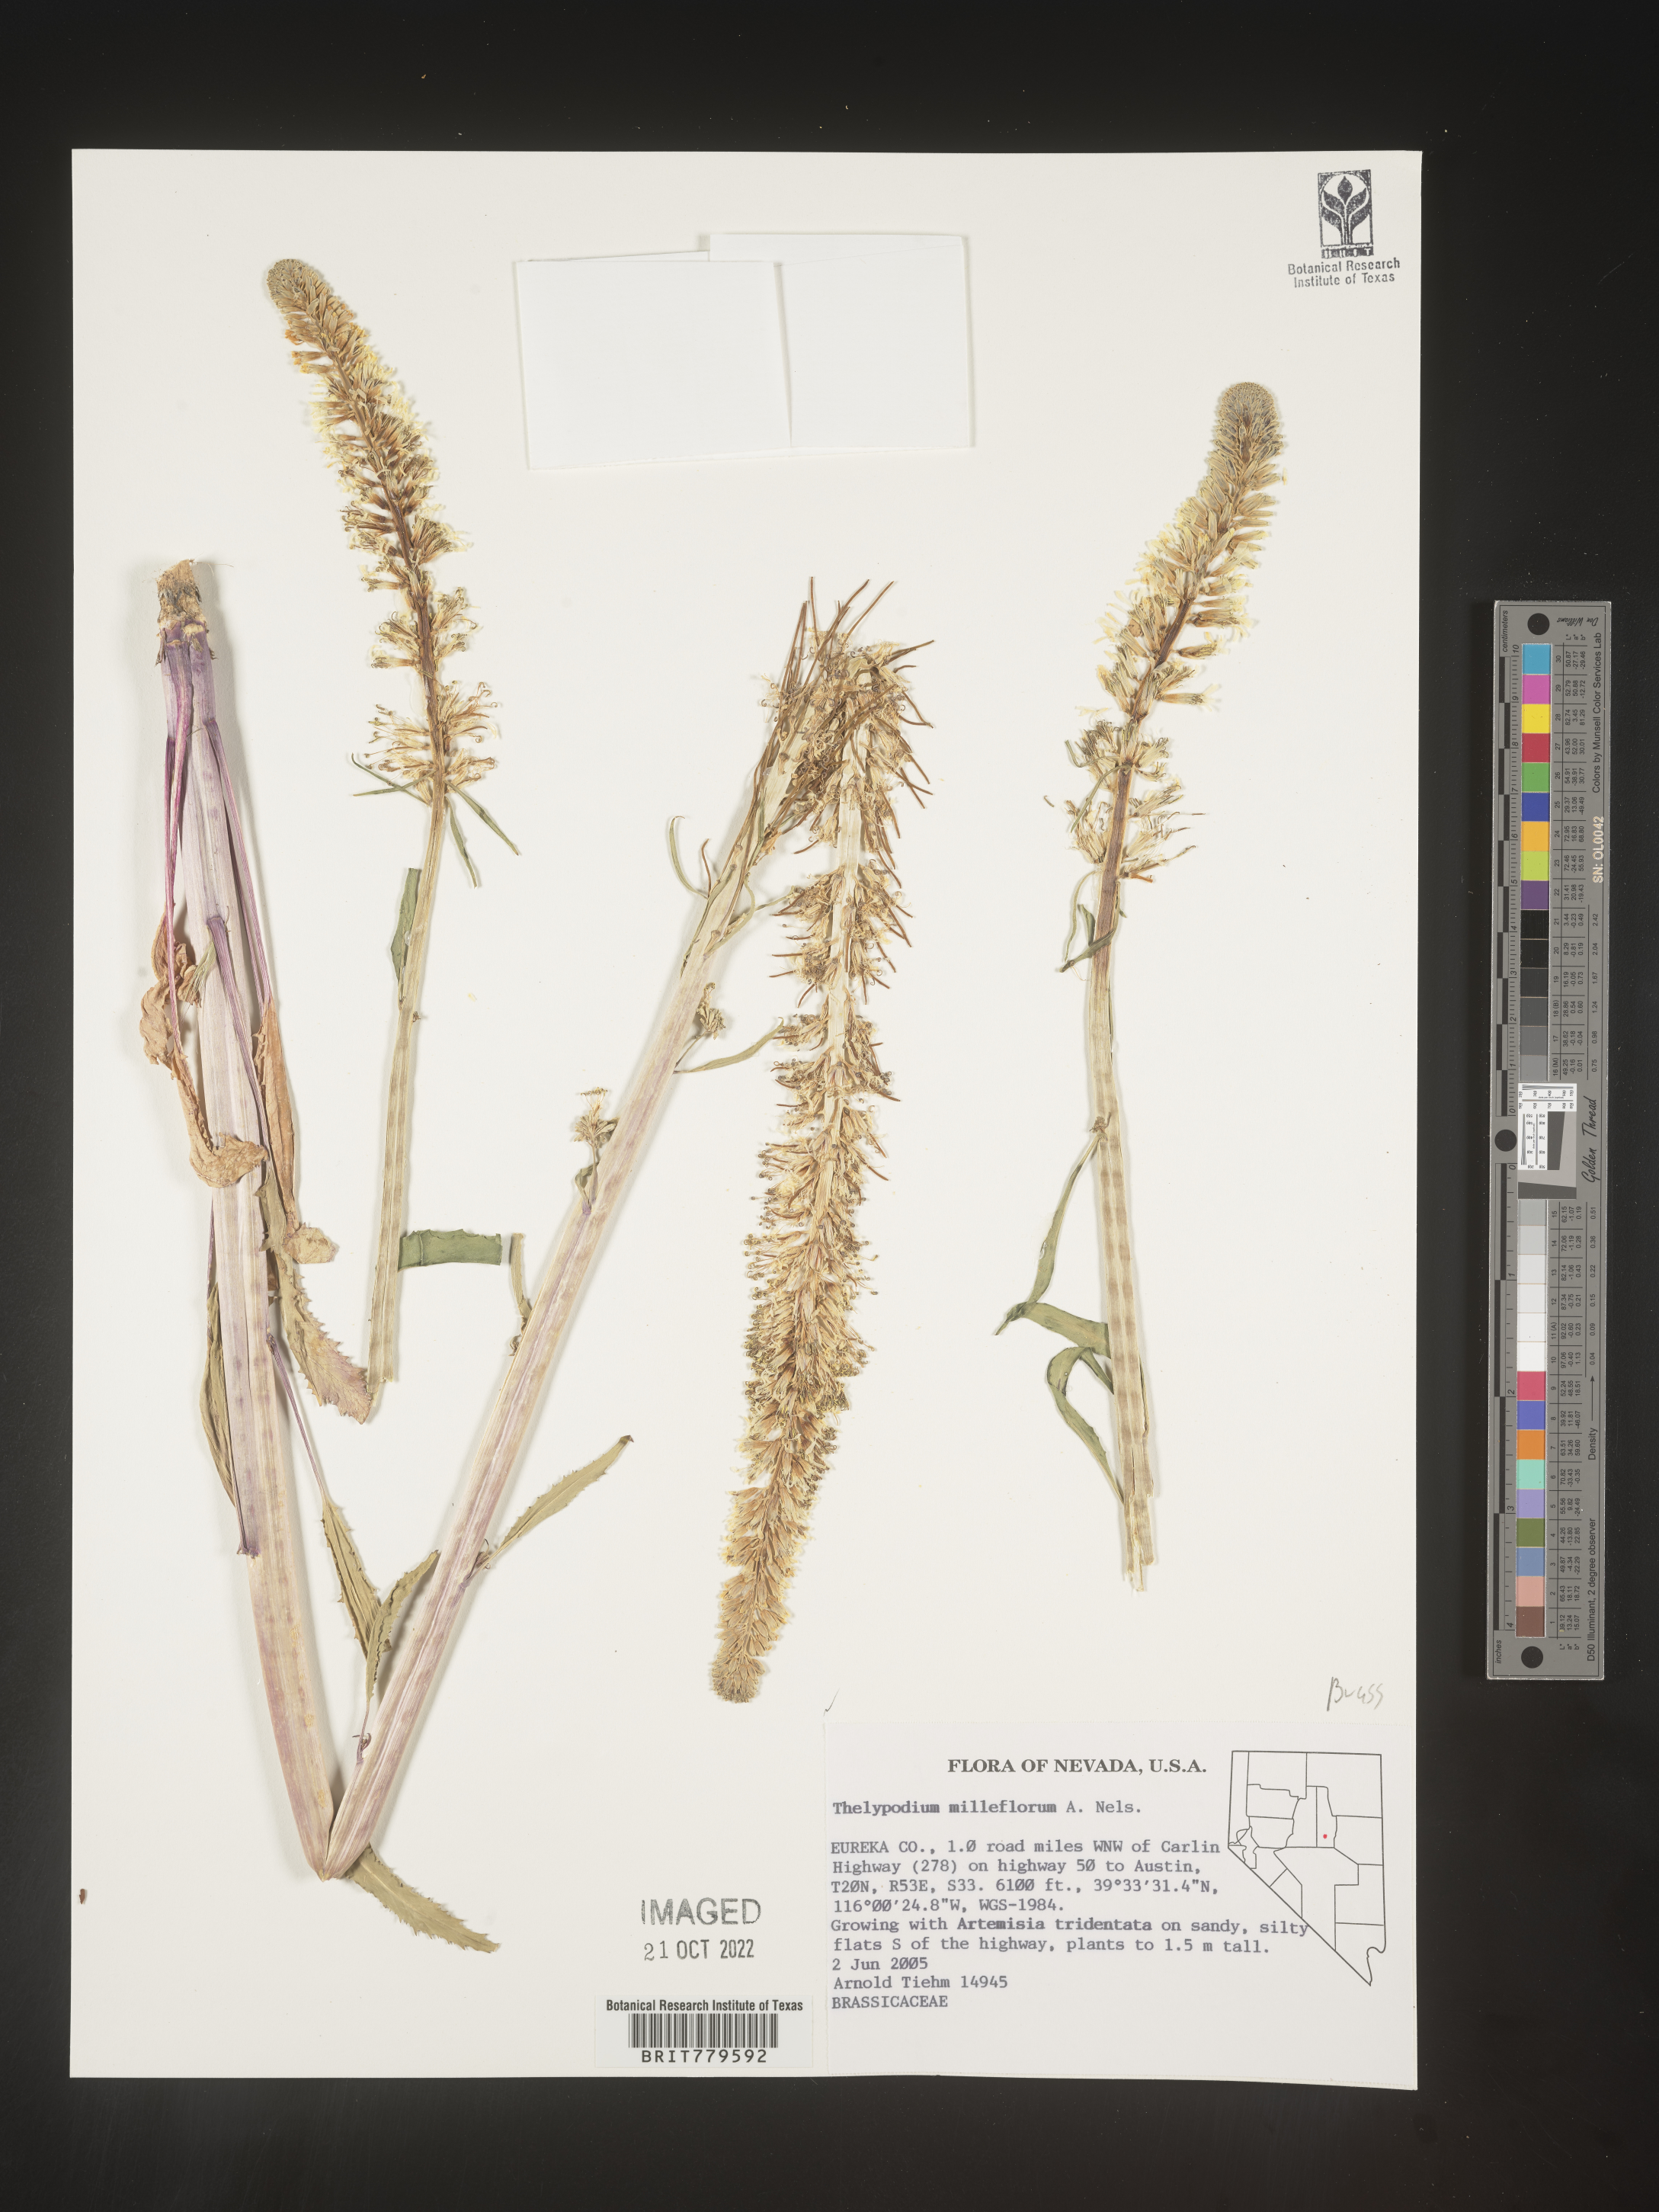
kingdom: Plantae
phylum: Tracheophyta
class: Magnoliopsida
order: Brassicales
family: Brassicaceae
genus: Thelypodium
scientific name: Thelypodium
